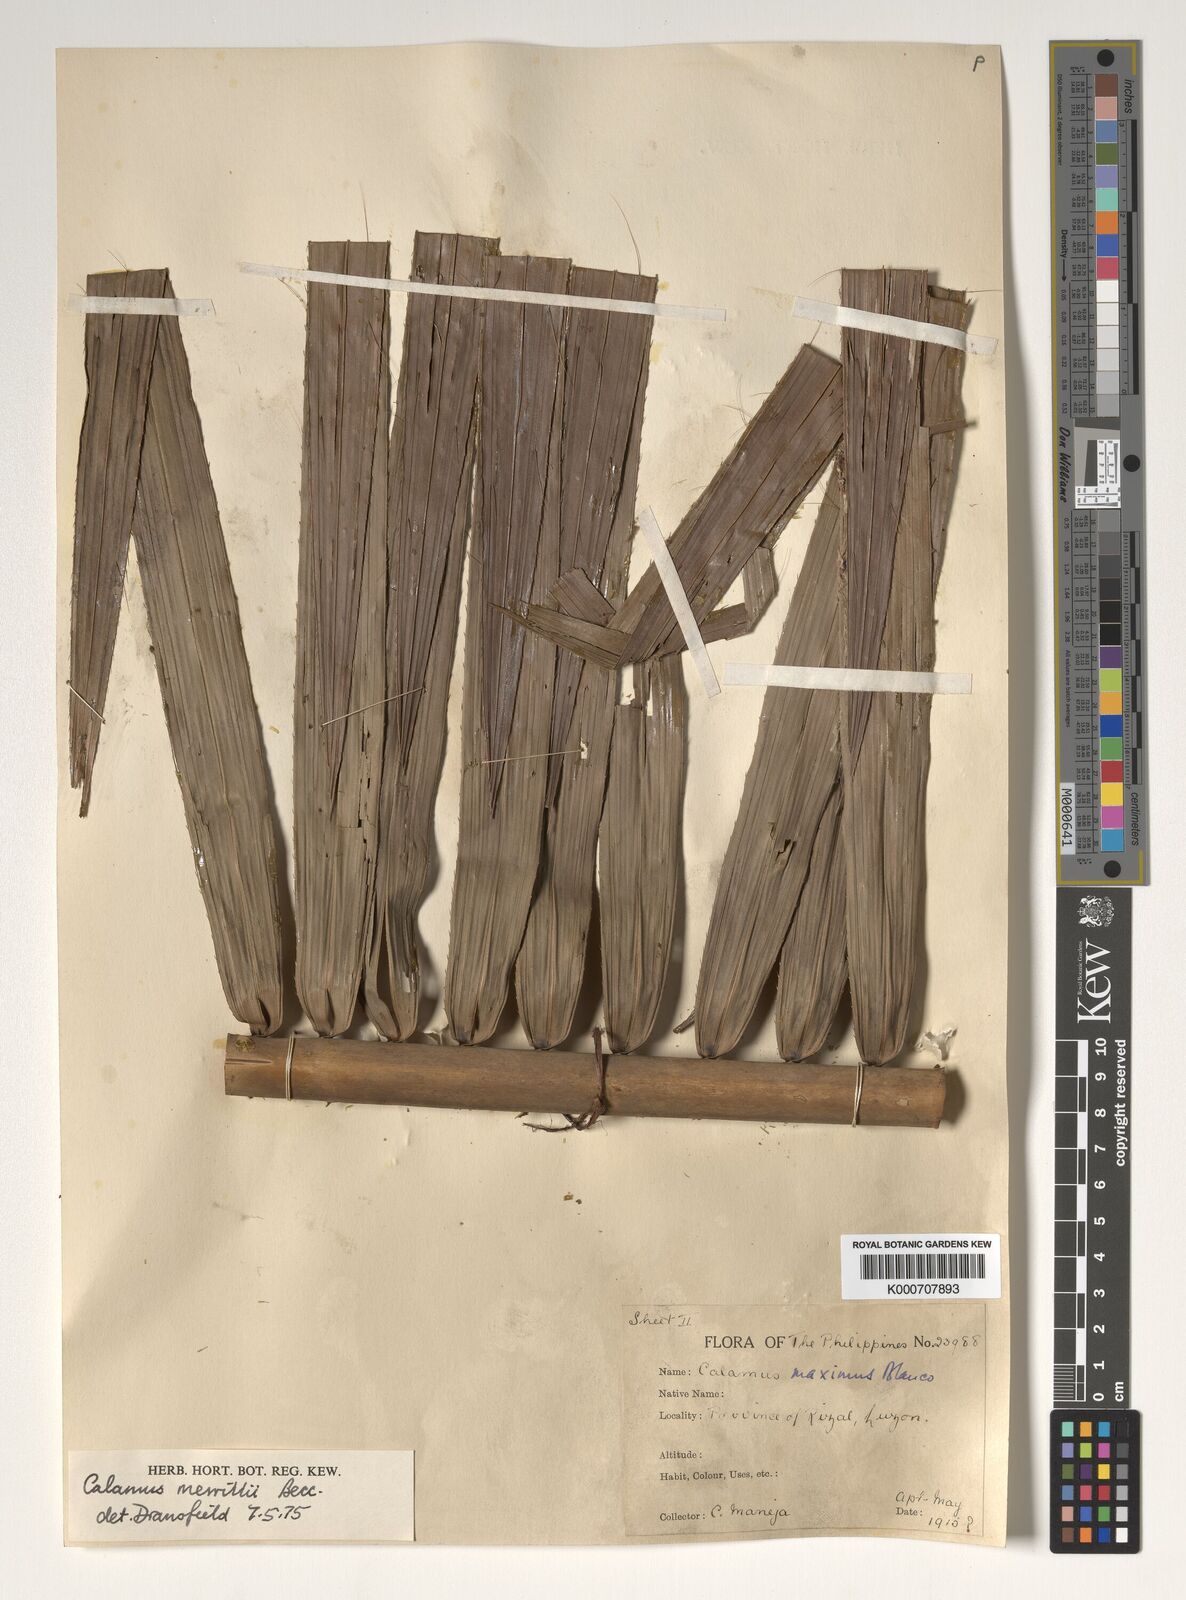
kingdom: Plantae
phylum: Tracheophyta
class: Liliopsida
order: Arecales
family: Arecaceae
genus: Calamus
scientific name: Calamus zollingeri
